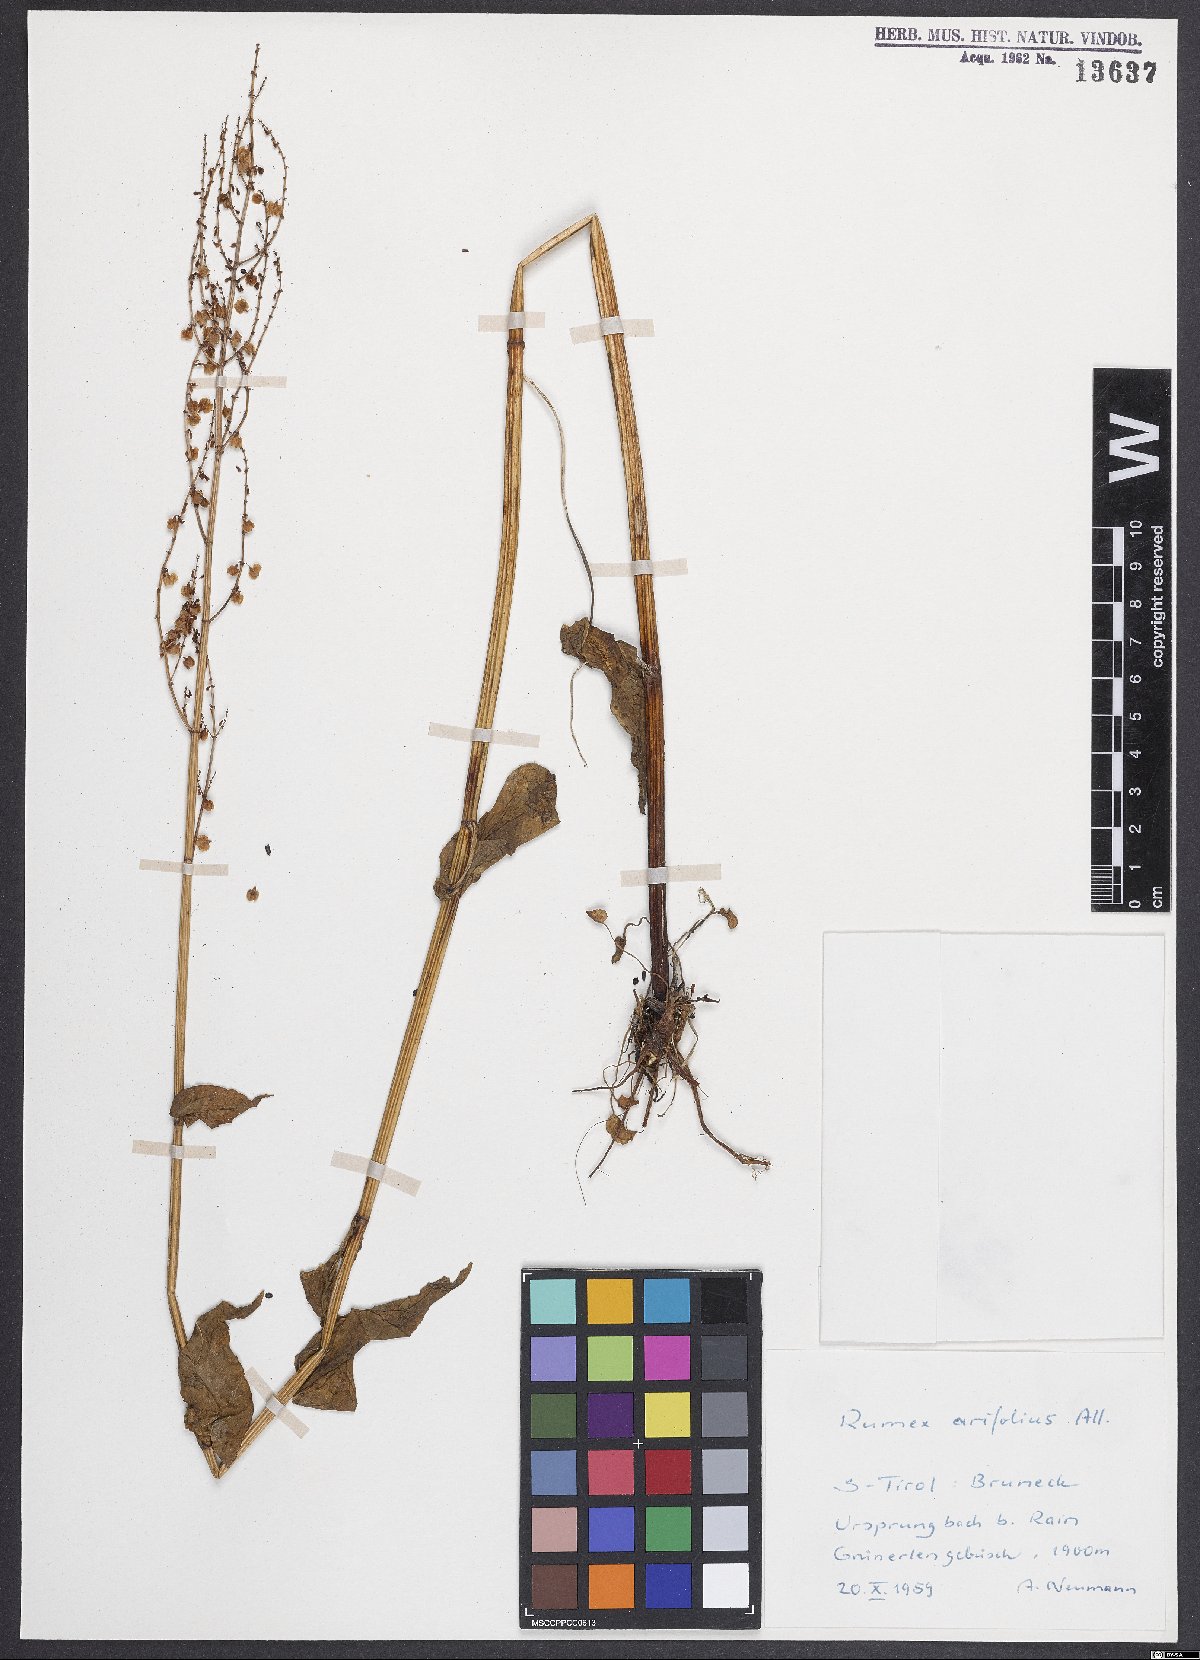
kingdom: Plantae
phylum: Tracheophyta
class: Magnoliopsida
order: Caryophyllales
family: Polygonaceae
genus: Rumex
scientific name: Rumex arifolius
